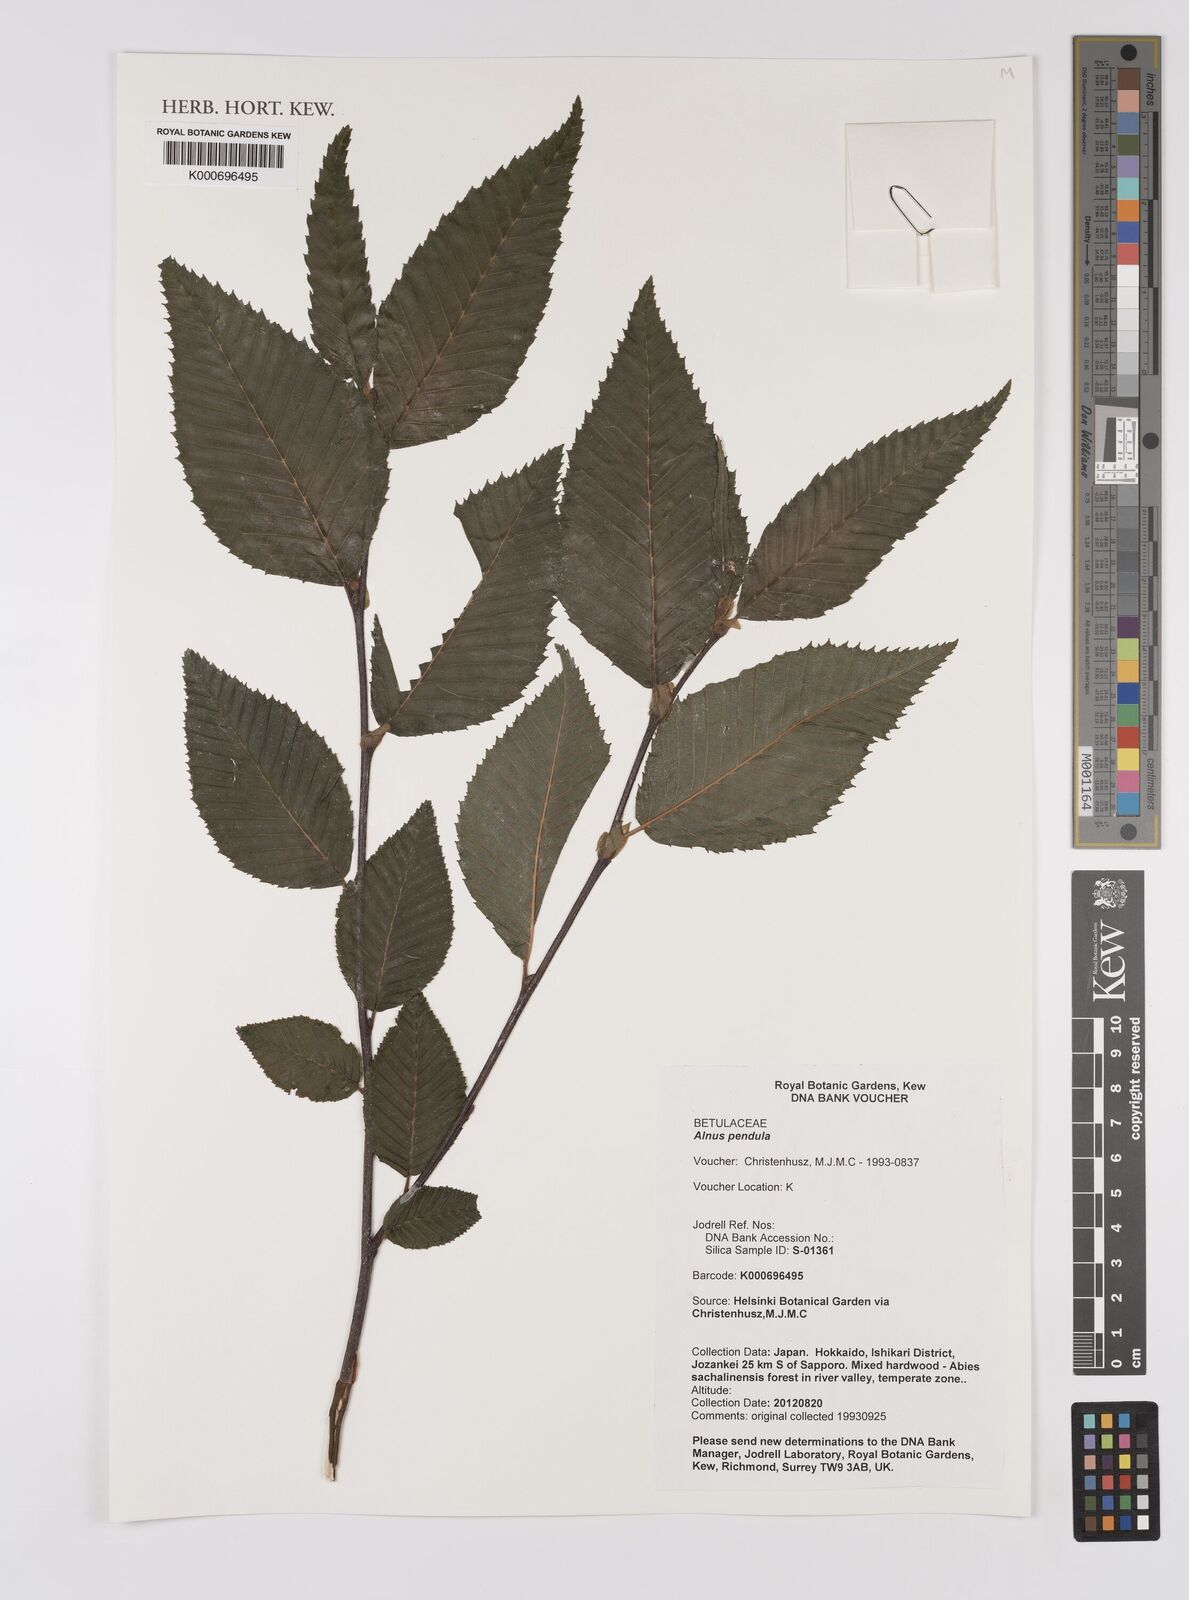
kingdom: Plantae
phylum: Tracheophyta
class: Magnoliopsida
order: Fagales
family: Betulaceae
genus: Alnus
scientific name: Alnus pendula
